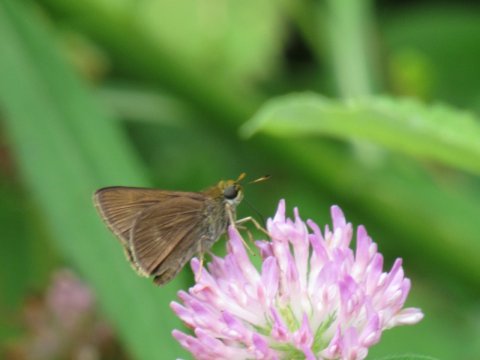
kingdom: Animalia
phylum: Arthropoda
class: Insecta
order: Lepidoptera
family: Hesperiidae
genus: Polites
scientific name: Polites egeremet
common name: Northern Broken-Dash
